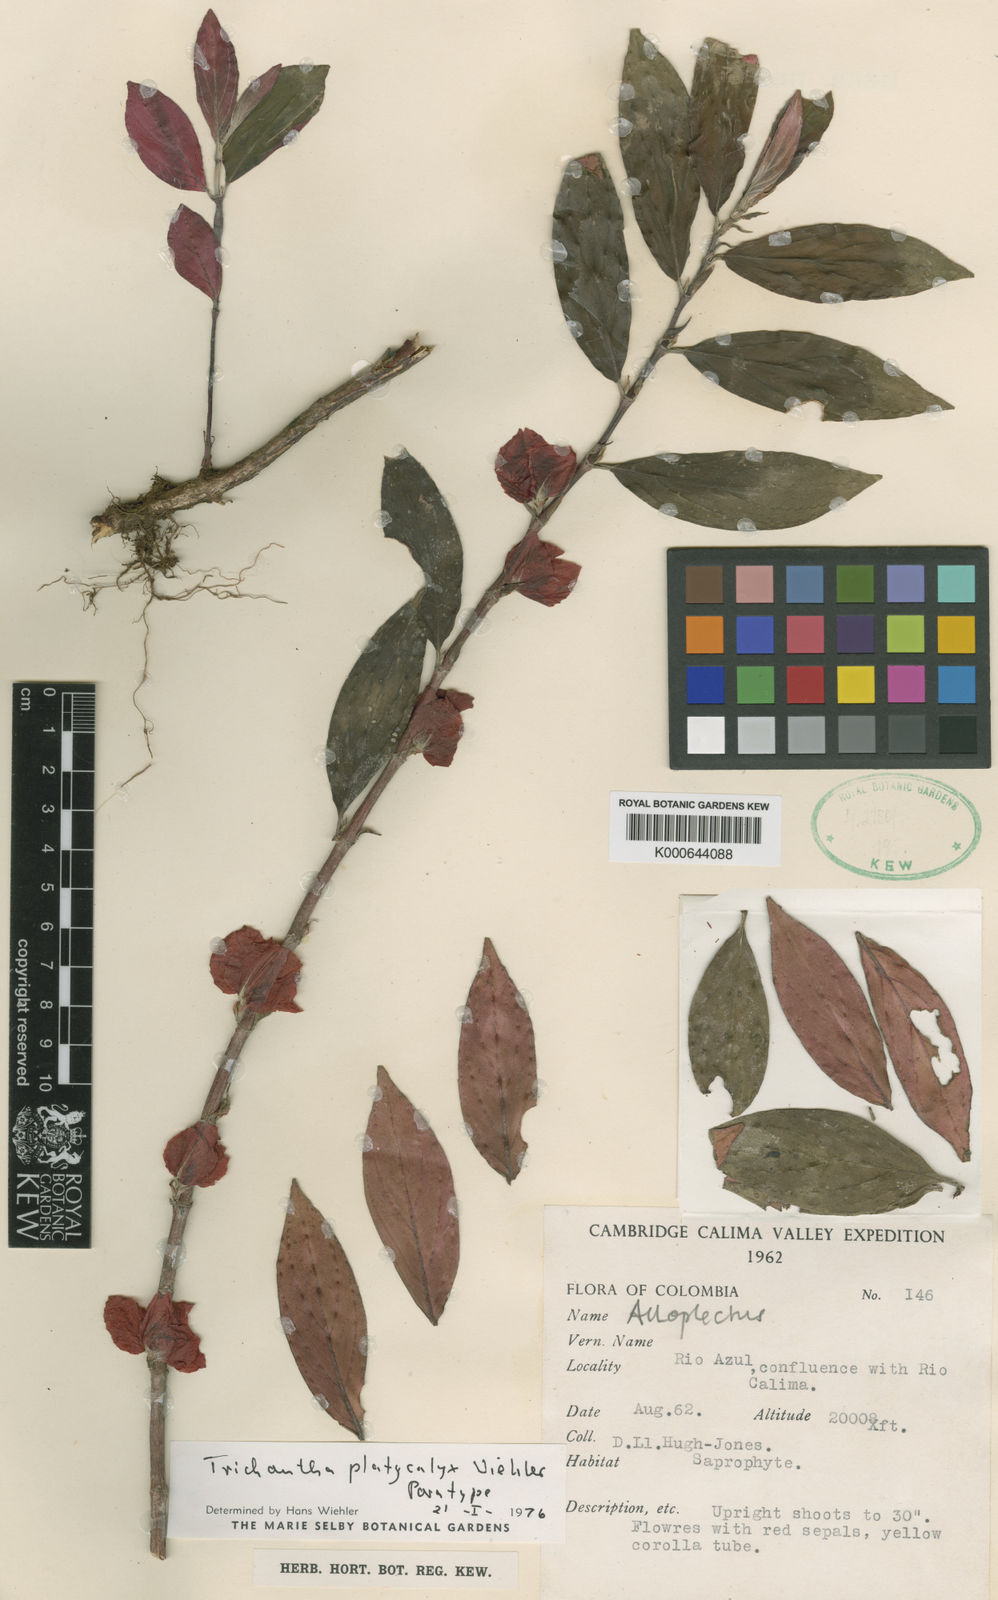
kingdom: Plantae
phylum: Tracheophyta
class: Magnoliopsida
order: Lamiales
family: Gesneriaceae
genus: Columnea
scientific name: Columnea
